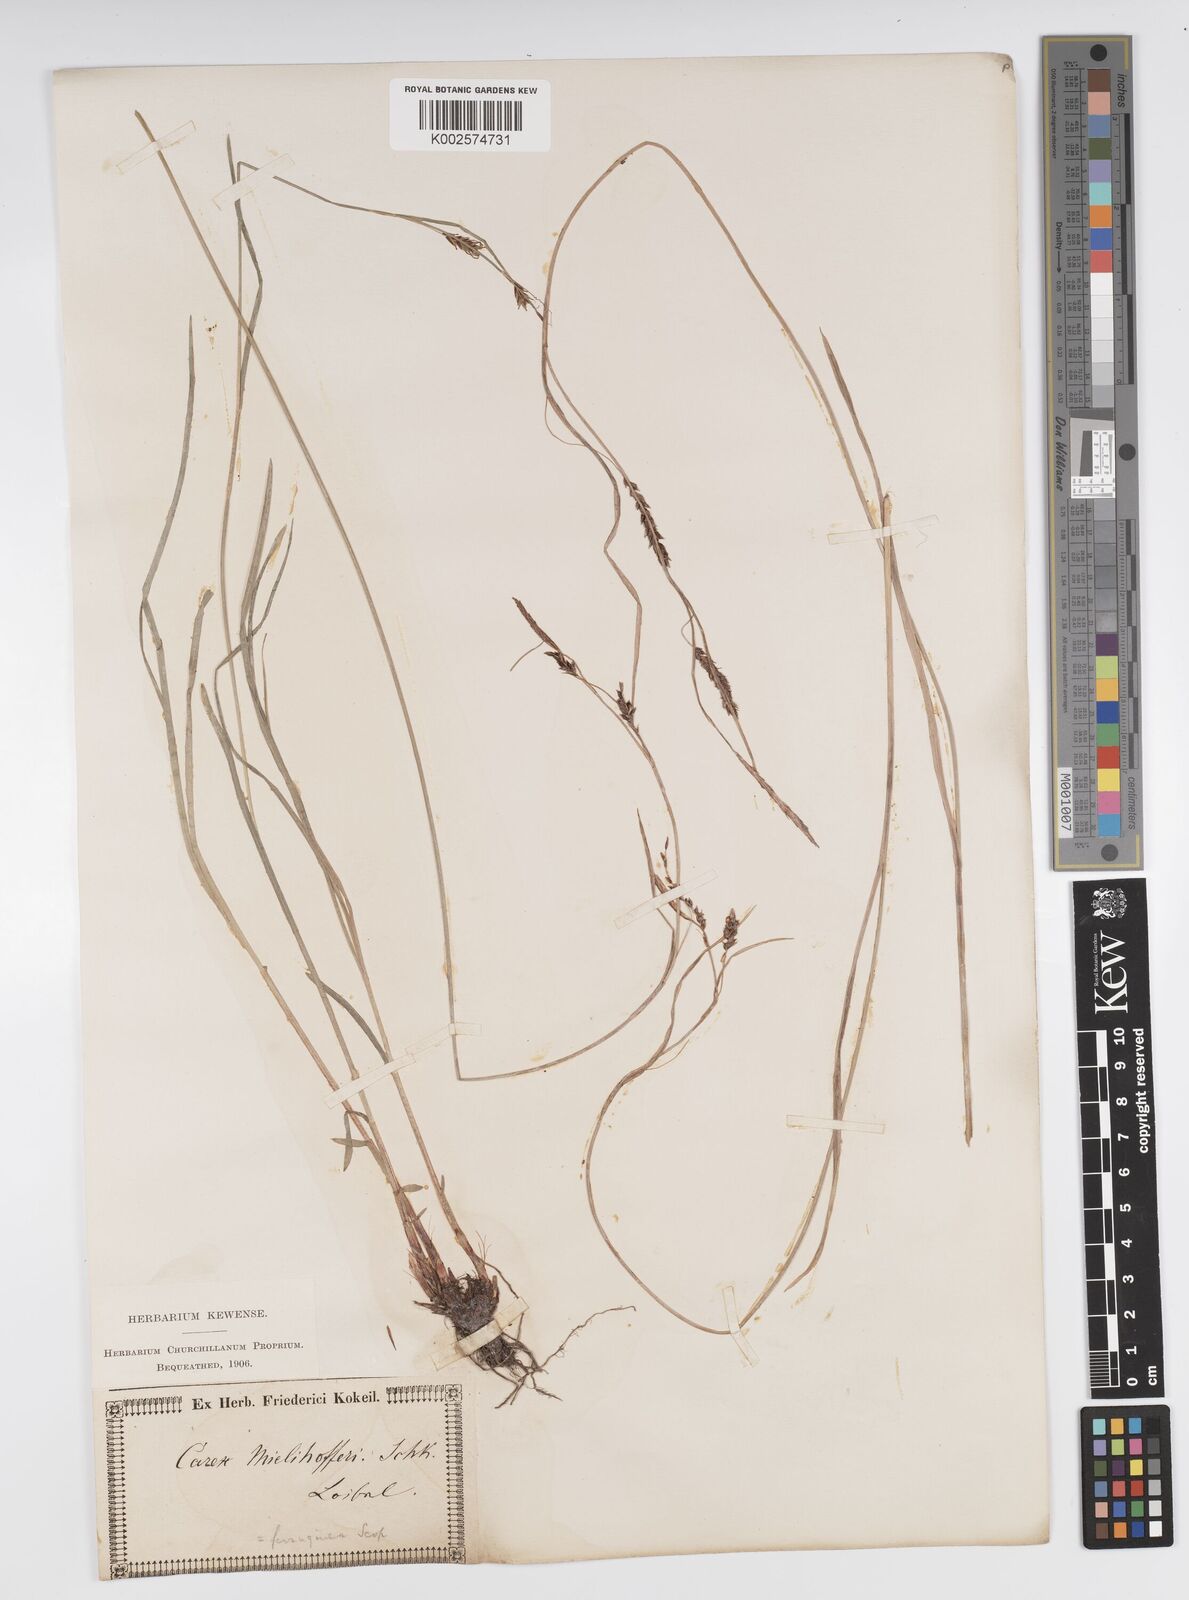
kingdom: Plantae
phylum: Tracheophyta
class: Liliopsida
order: Poales
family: Cyperaceae
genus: Carex
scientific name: Carex ferruginea
